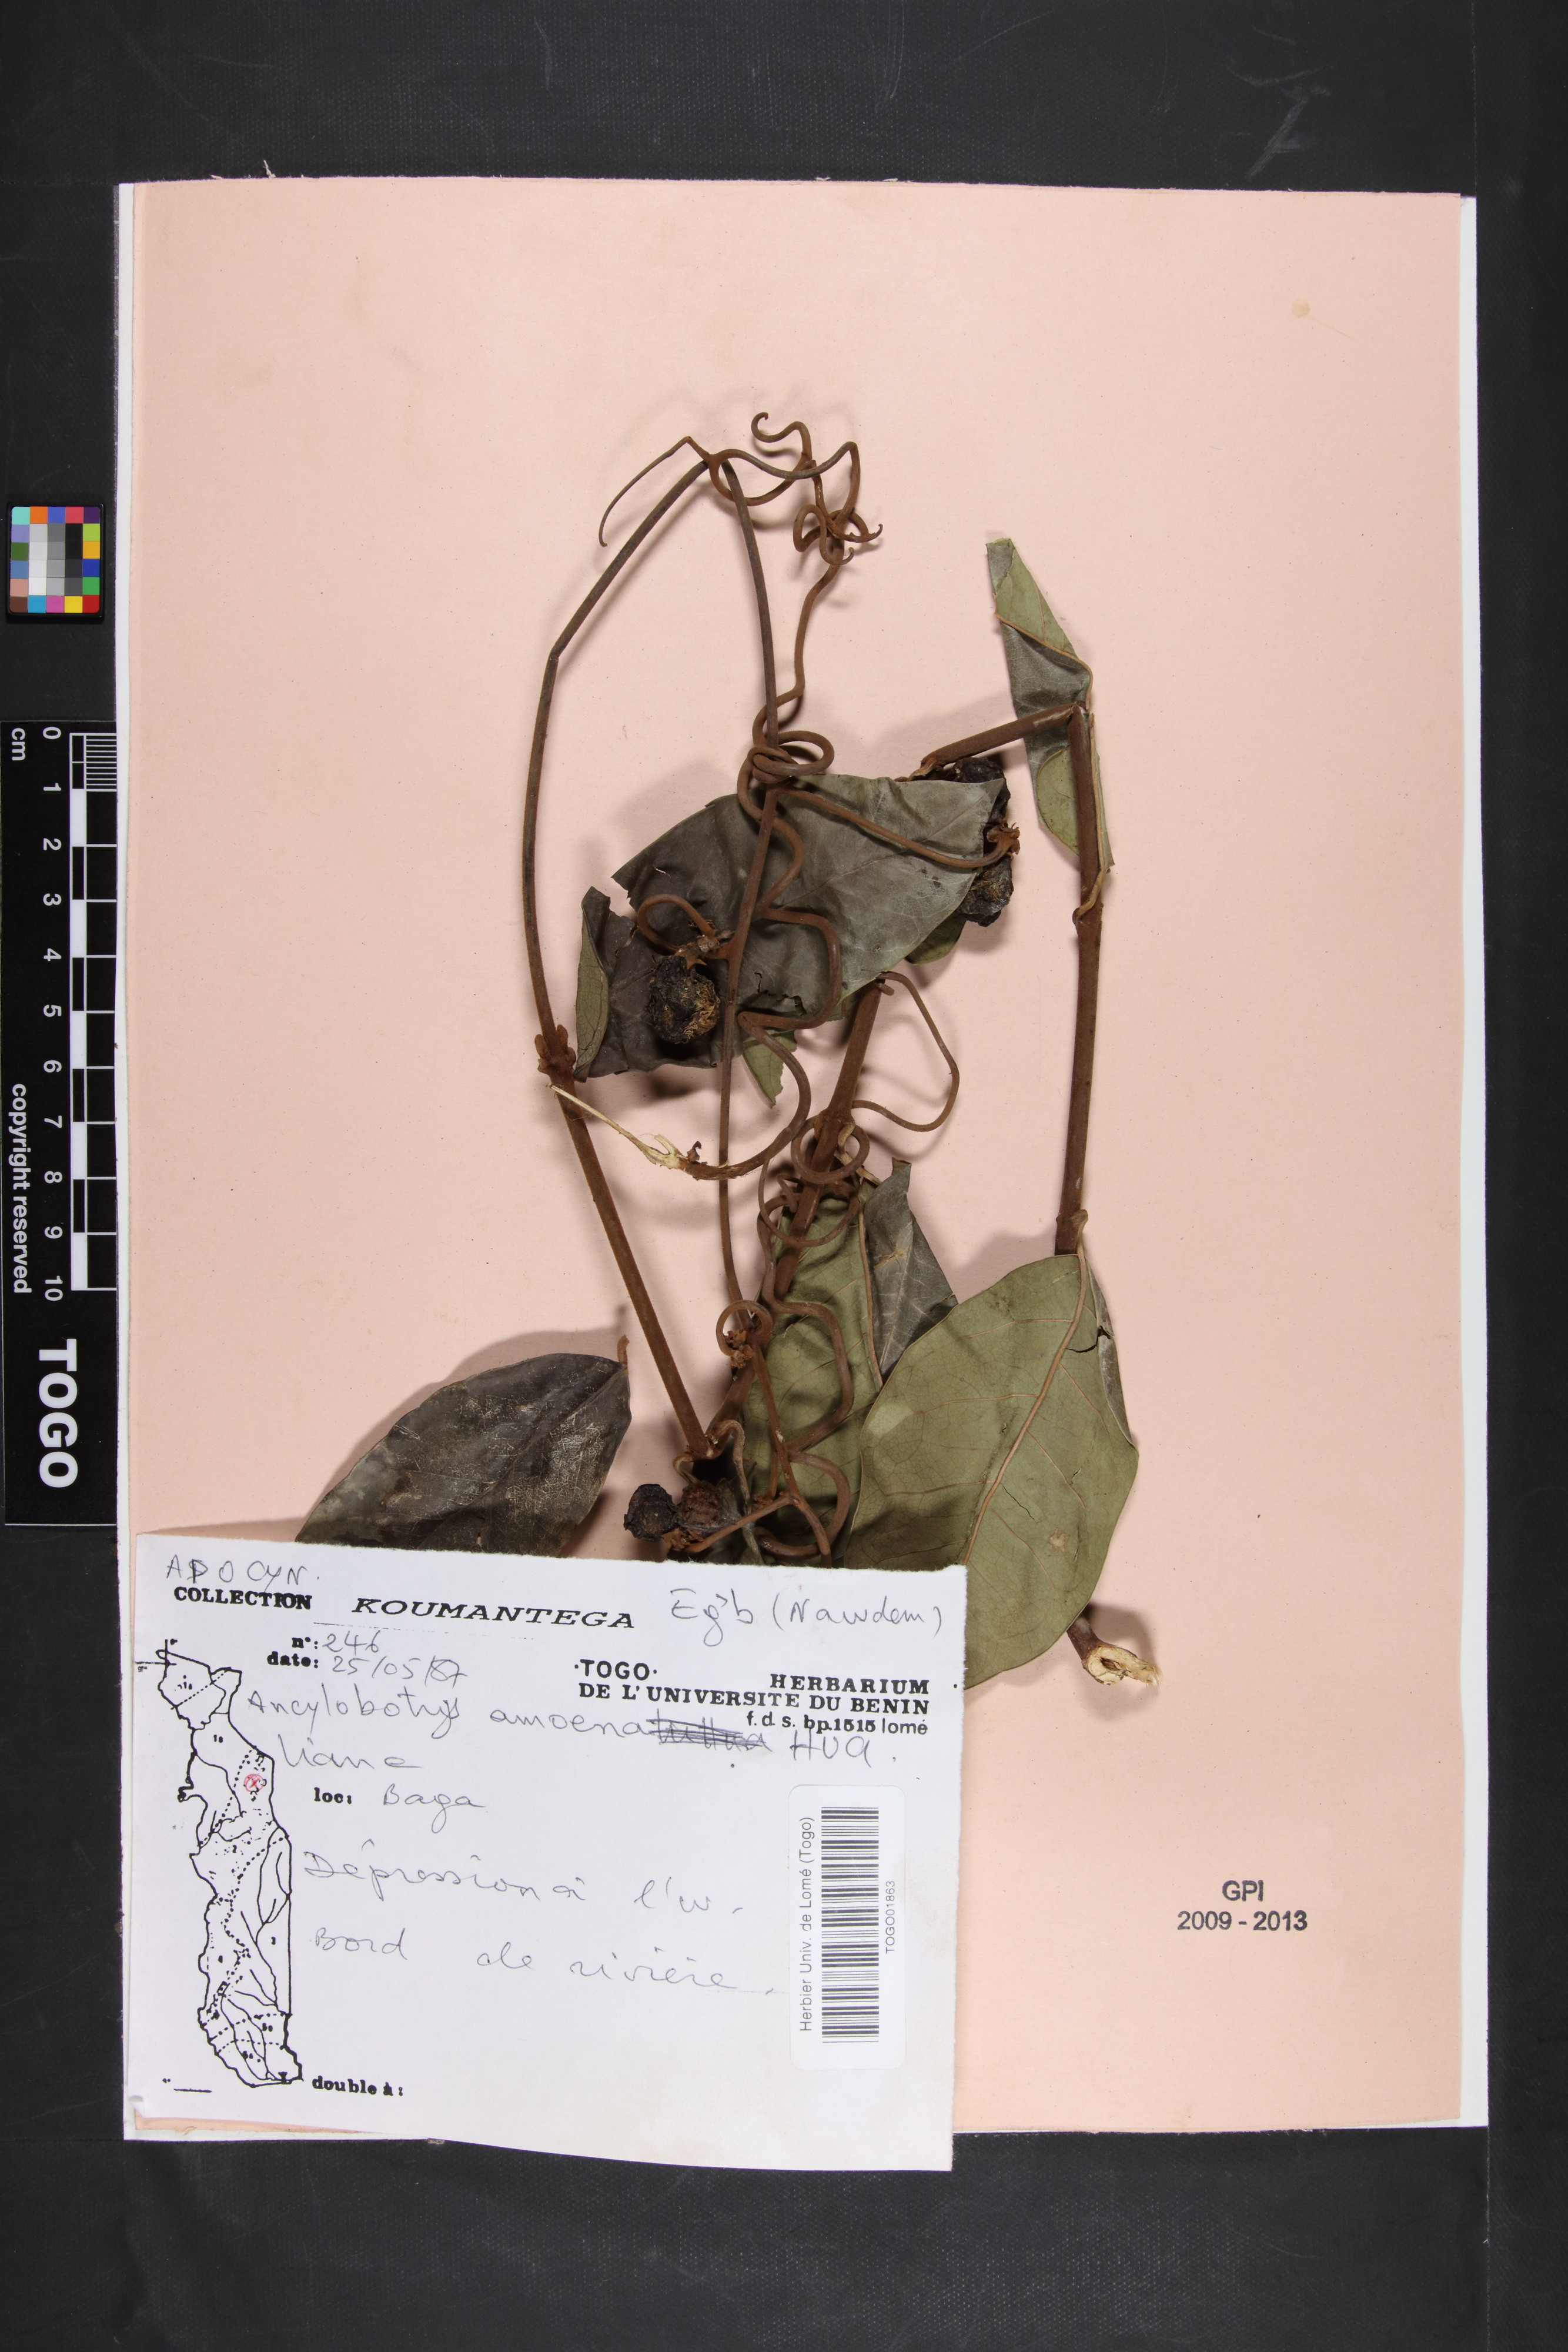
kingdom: Plantae
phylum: Tracheophyta
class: Magnoliopsida
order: Gentianales
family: Apocynaceae
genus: Ancylobothrys
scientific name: Ancylobothrys amoena
